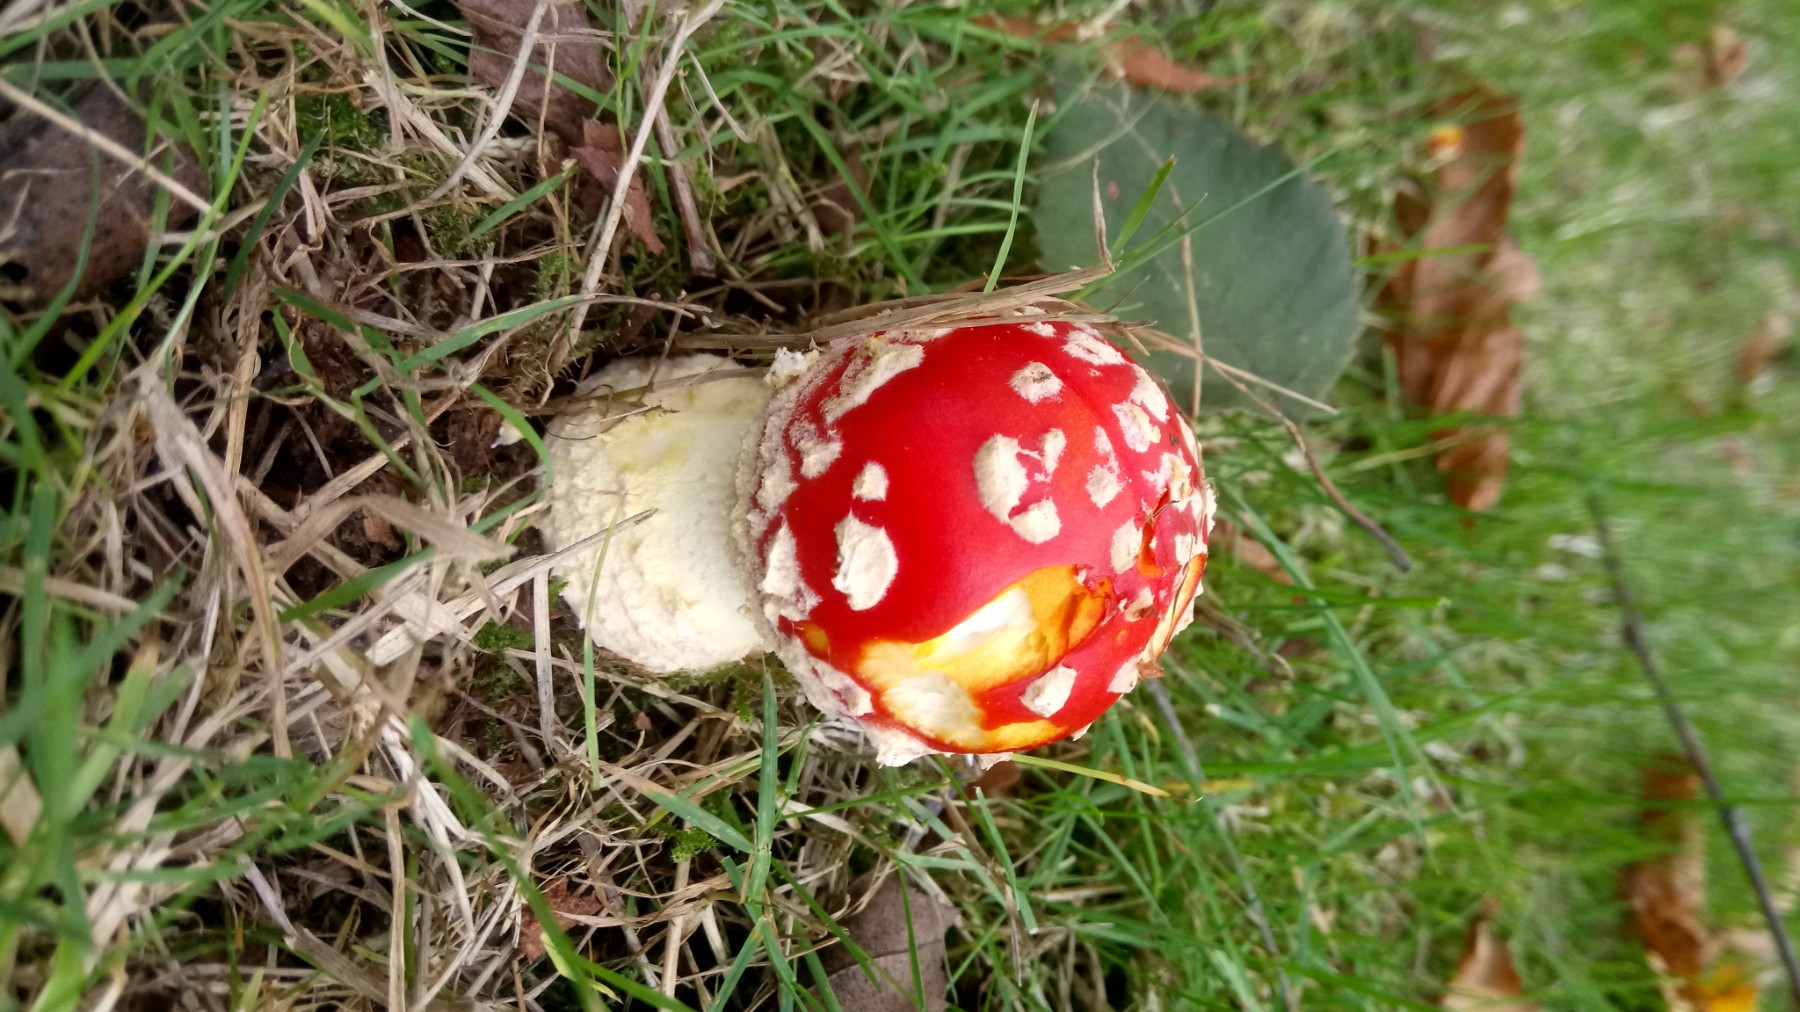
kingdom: Fungi
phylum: Basidiomycota
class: Agaricomycetes
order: Agaricales
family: Amanitaceae
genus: Amanita
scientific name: Amanita muscaria
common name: rød fluesvamp
